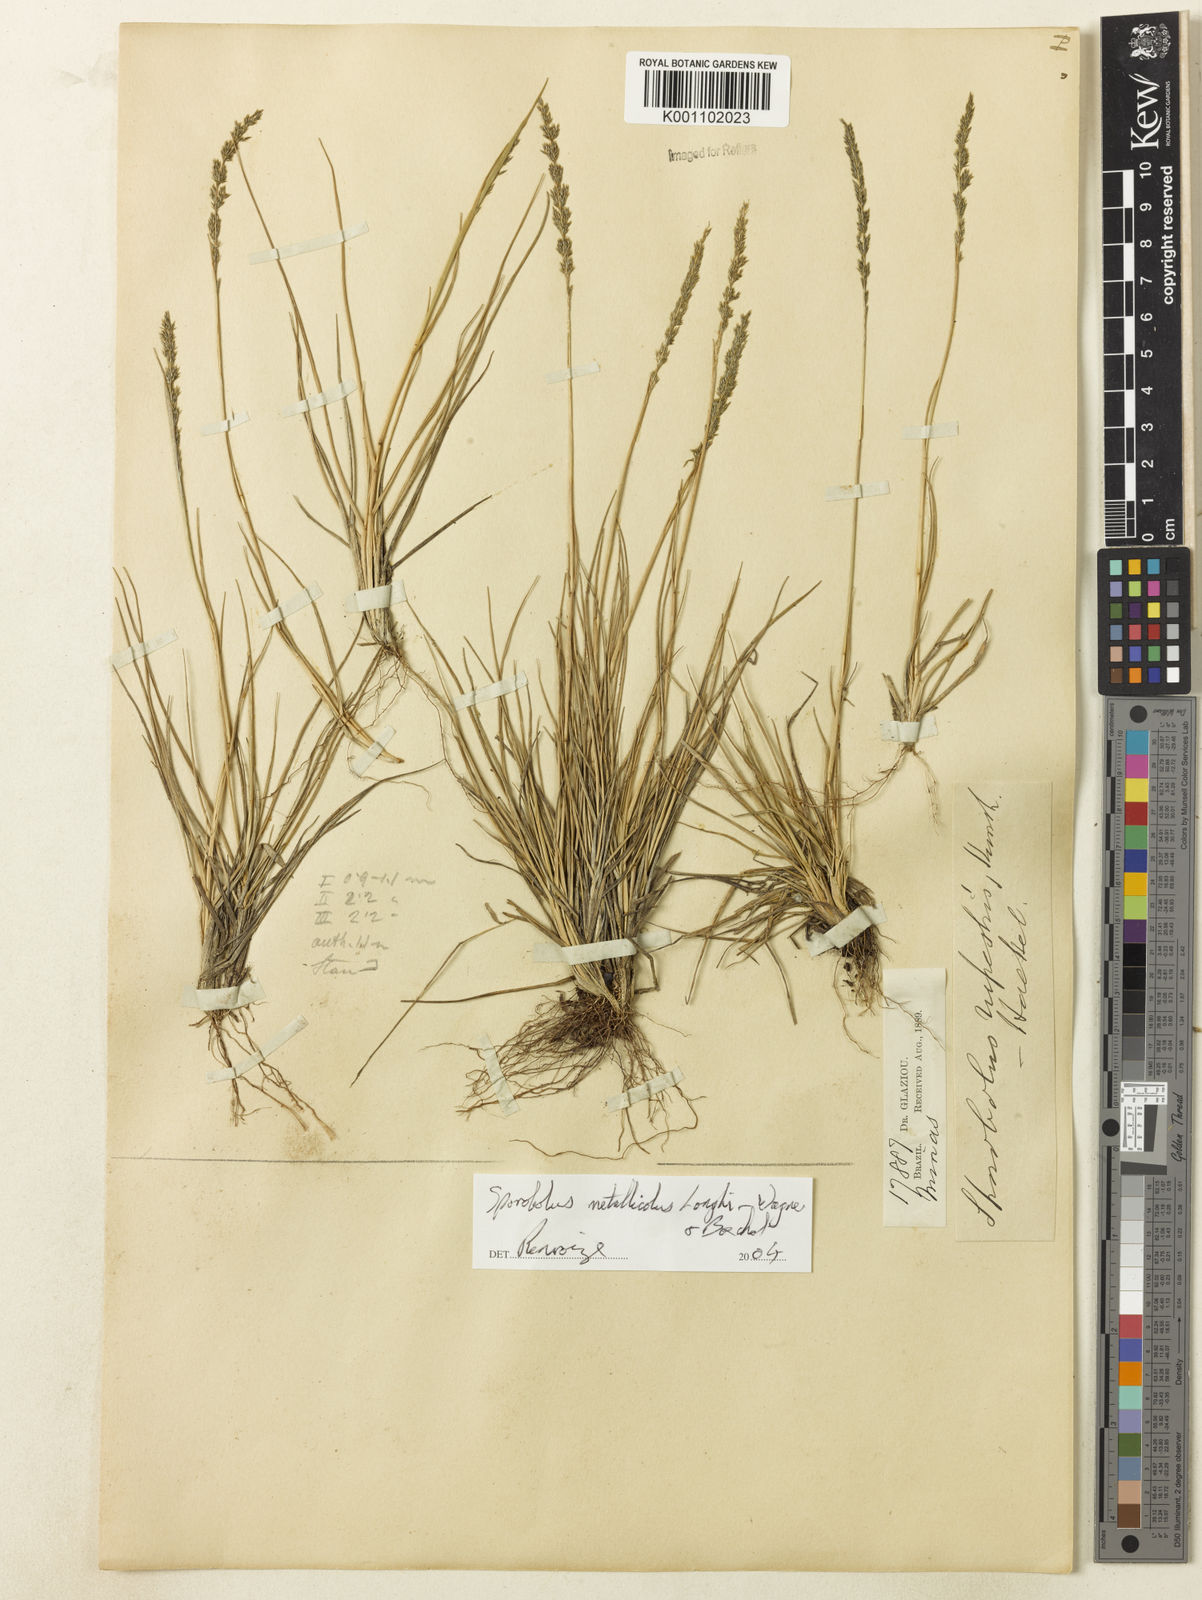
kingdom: Plantae
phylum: Tracheophyta
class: Liliopsida
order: Poales
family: Poaceae
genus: Sporobolus
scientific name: Sporobolus metallicola
